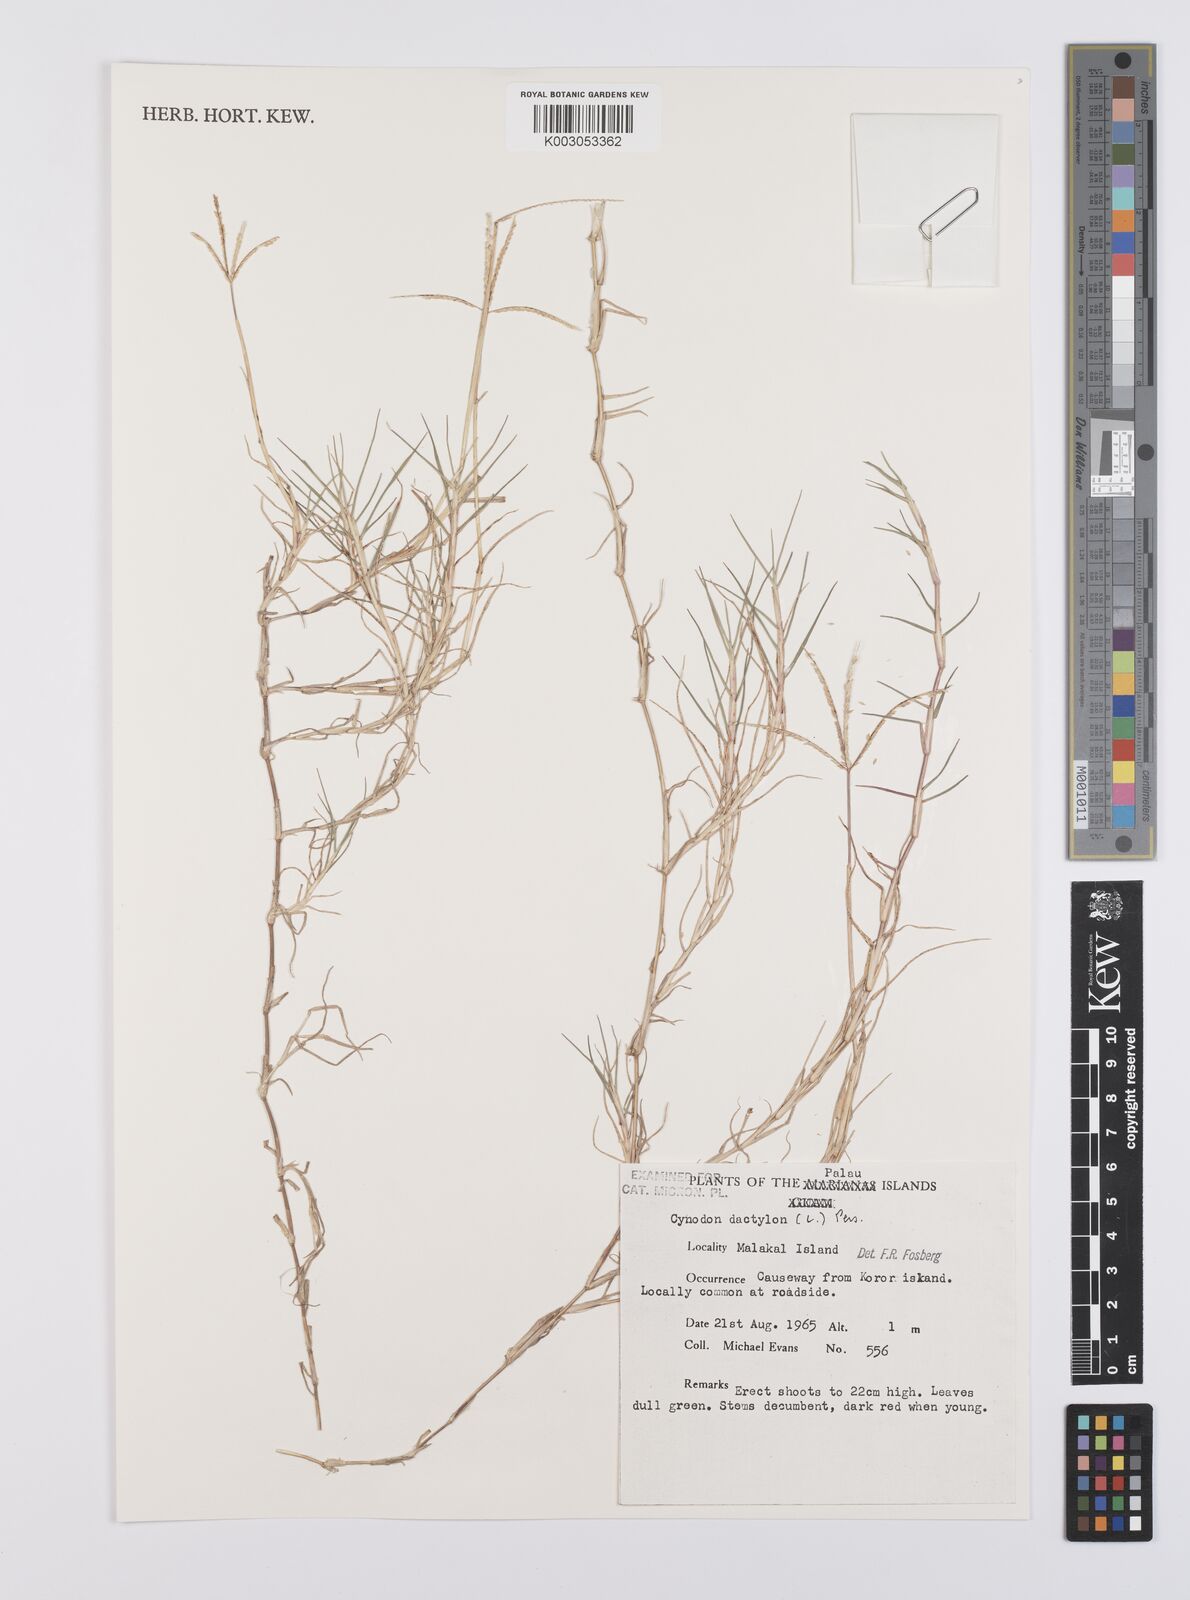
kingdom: Plantae
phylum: Tracheophyta
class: Liliopsida
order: Poales
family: Poaceae
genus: Cynodon
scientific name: Cynodon dactylon
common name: Bermuda grass
